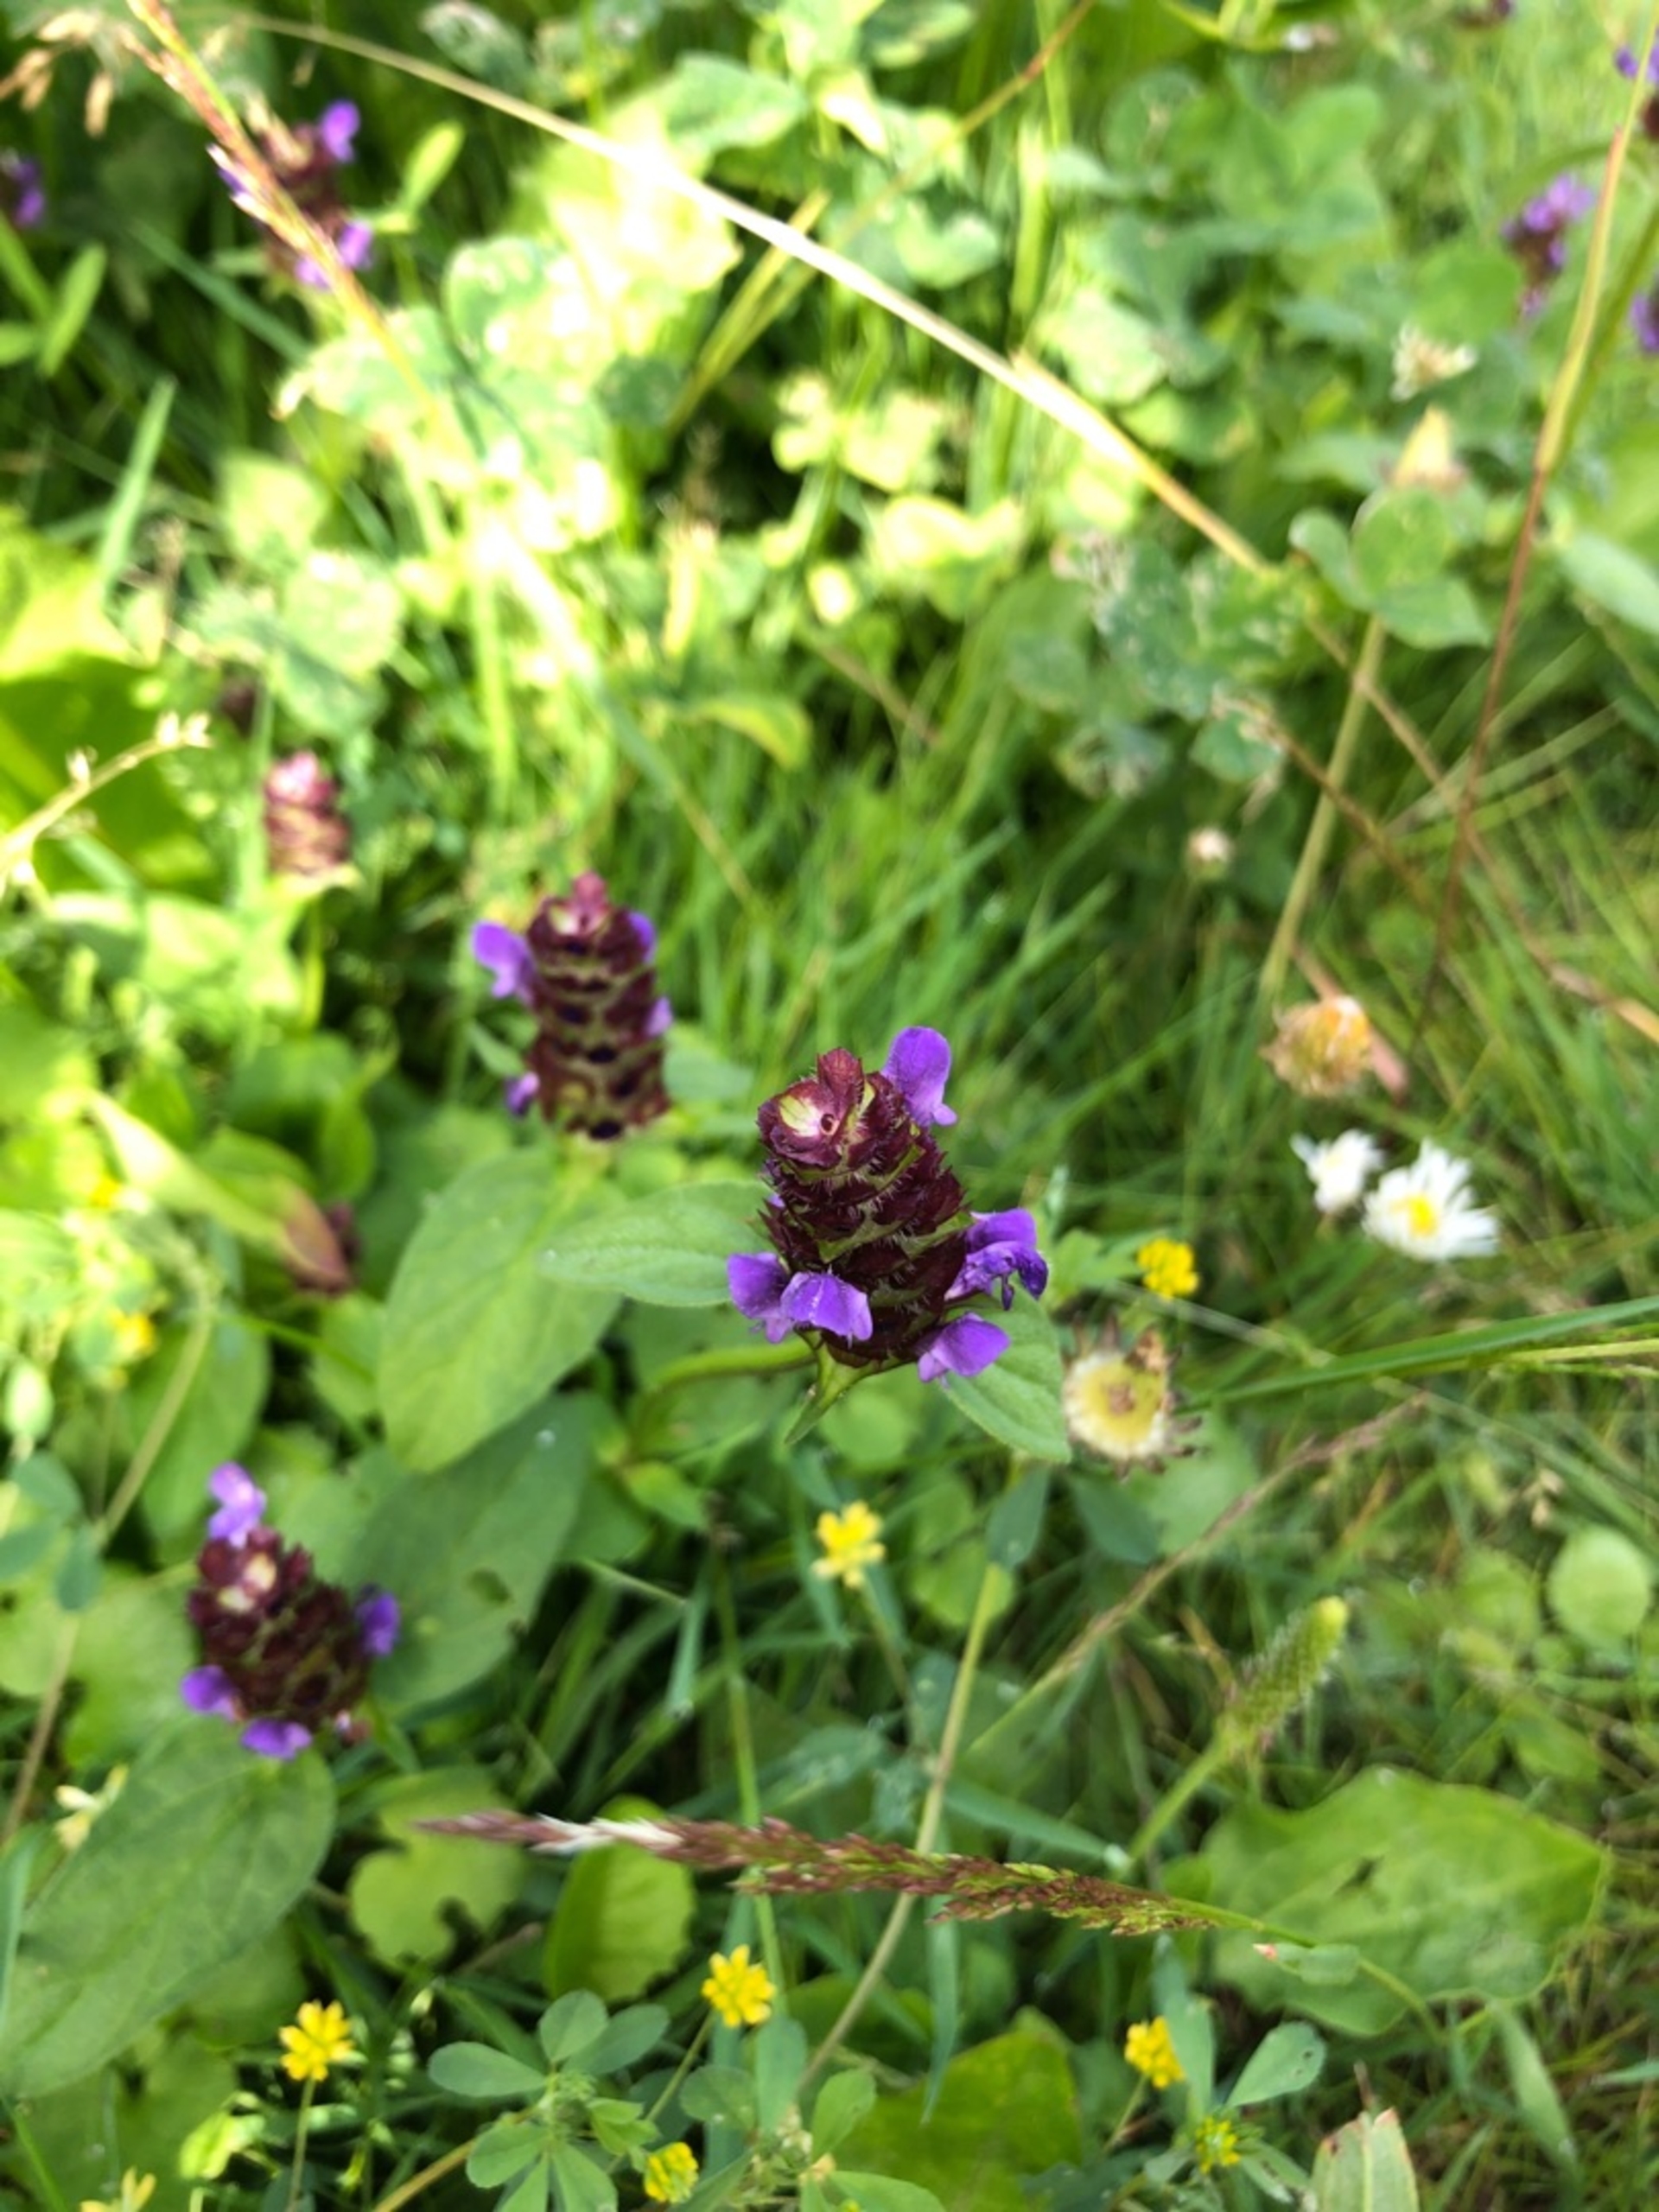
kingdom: Plantae
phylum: Tracheophyta
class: Magnoliopsida
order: Lamiales
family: Lamiaceae
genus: Prunella
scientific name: Prunella vulgaris
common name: Almindelig brunelle
